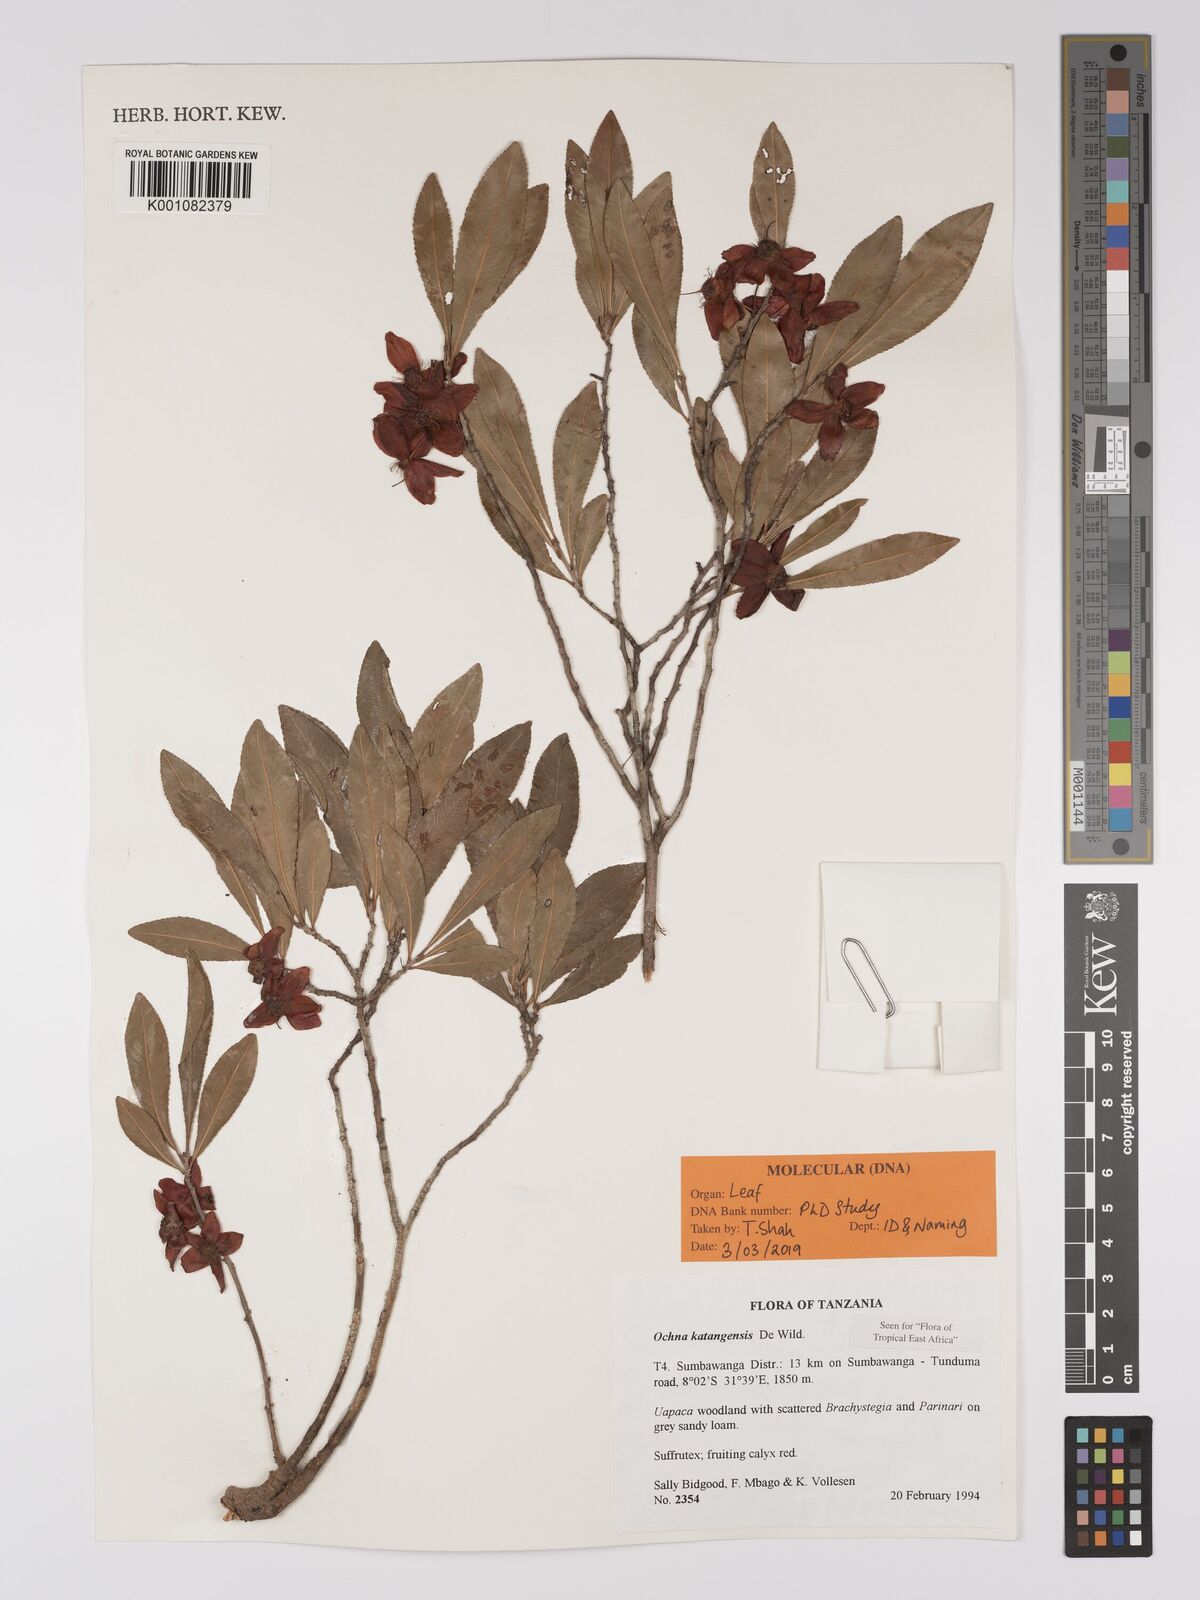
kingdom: Plantae
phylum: Tracheophyta
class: Magnoliopsida
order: Malpighiales
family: Ochnaceae
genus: Ochna
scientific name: Ochna katangensis
